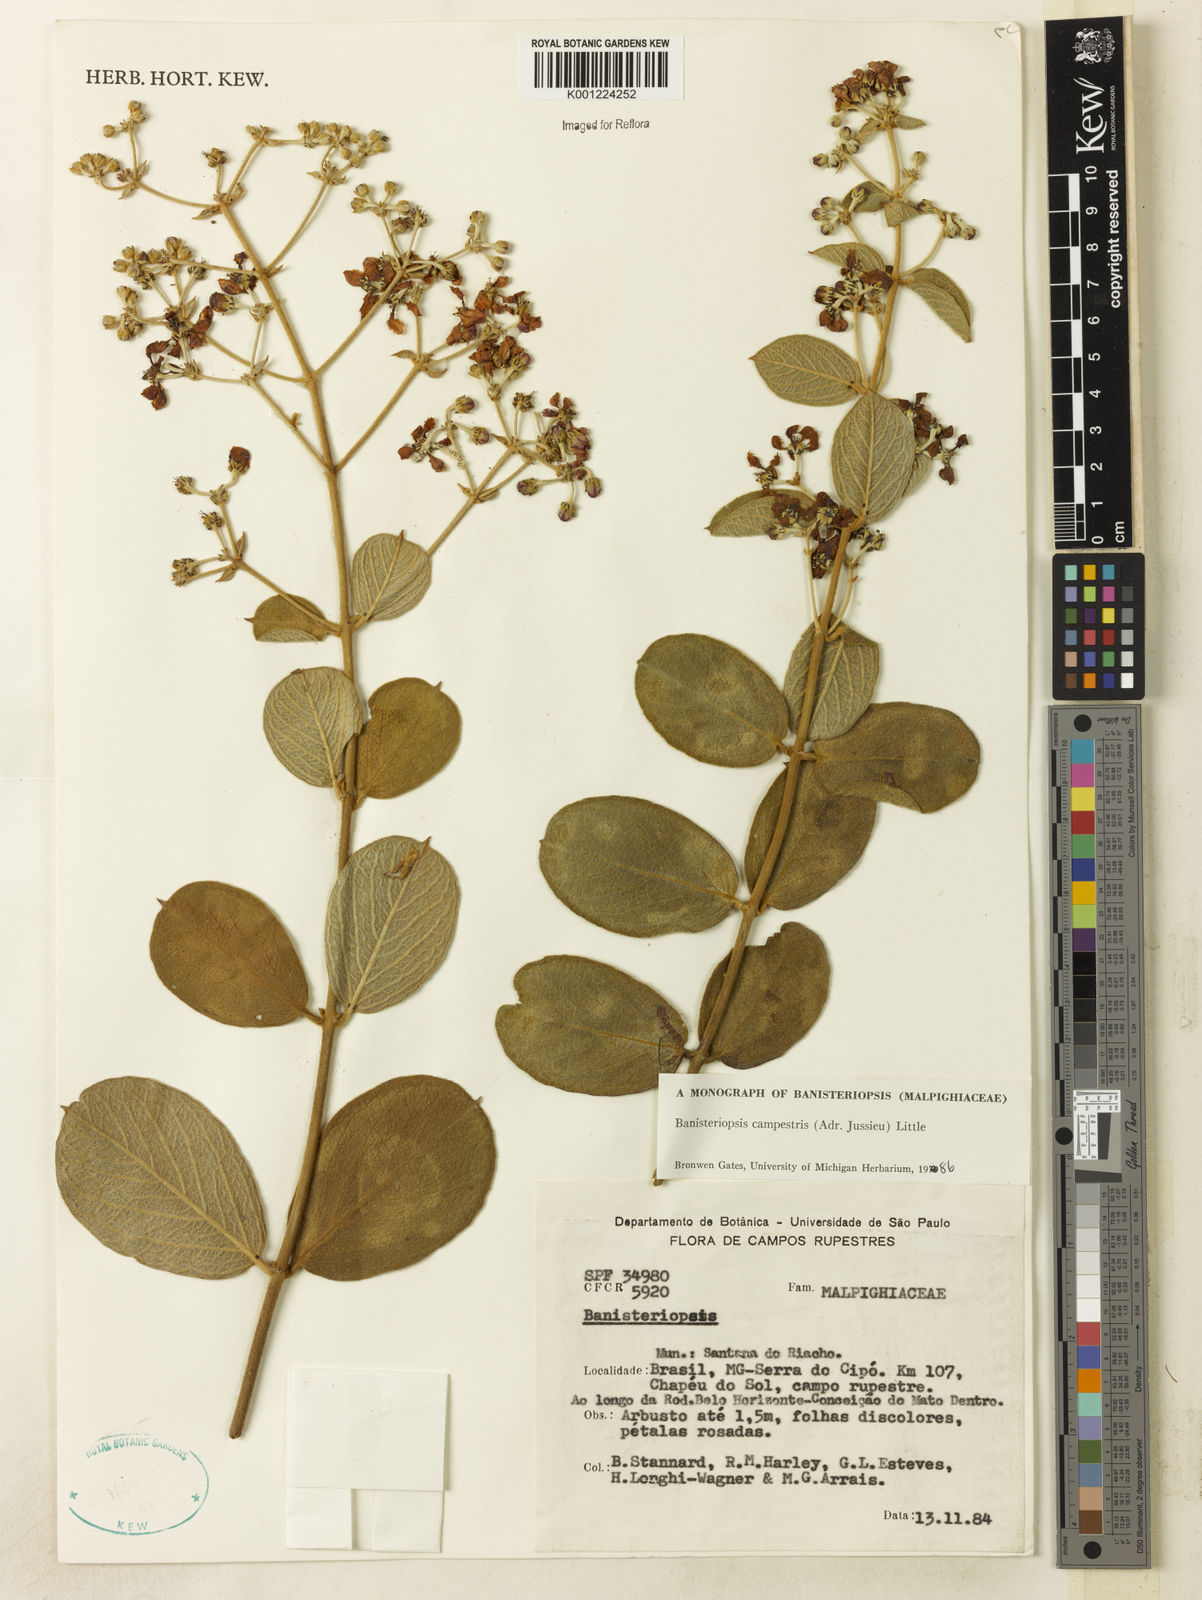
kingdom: Plantae
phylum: Tracheophyta
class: Magnoliopsida
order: Malpighiales
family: Malpighiaceae
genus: Banisteriopsis
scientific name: Banisteriopsis campestris
